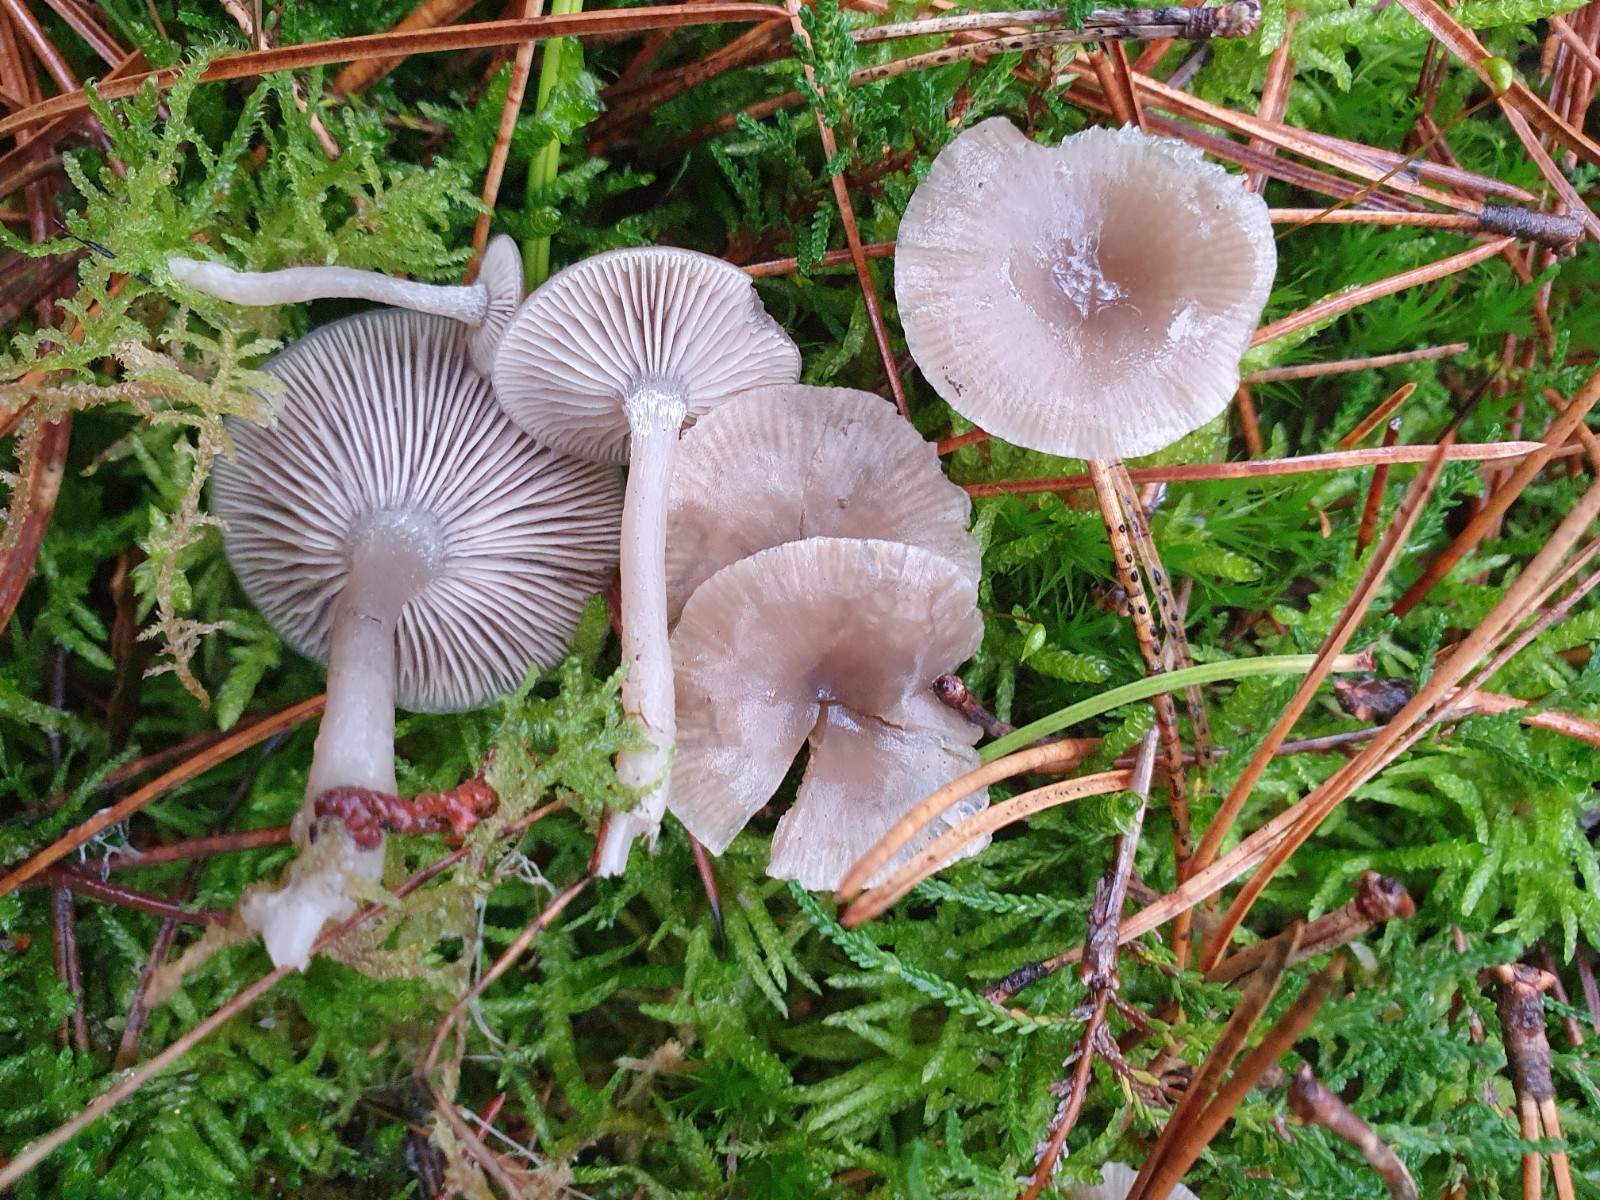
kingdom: Fungi
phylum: Basidiomycota
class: Agaricomycetes
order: Agaricales
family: Tricholomataceae
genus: Clitocybe
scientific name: Clitocybe vibecina
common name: randstribet tragthat
